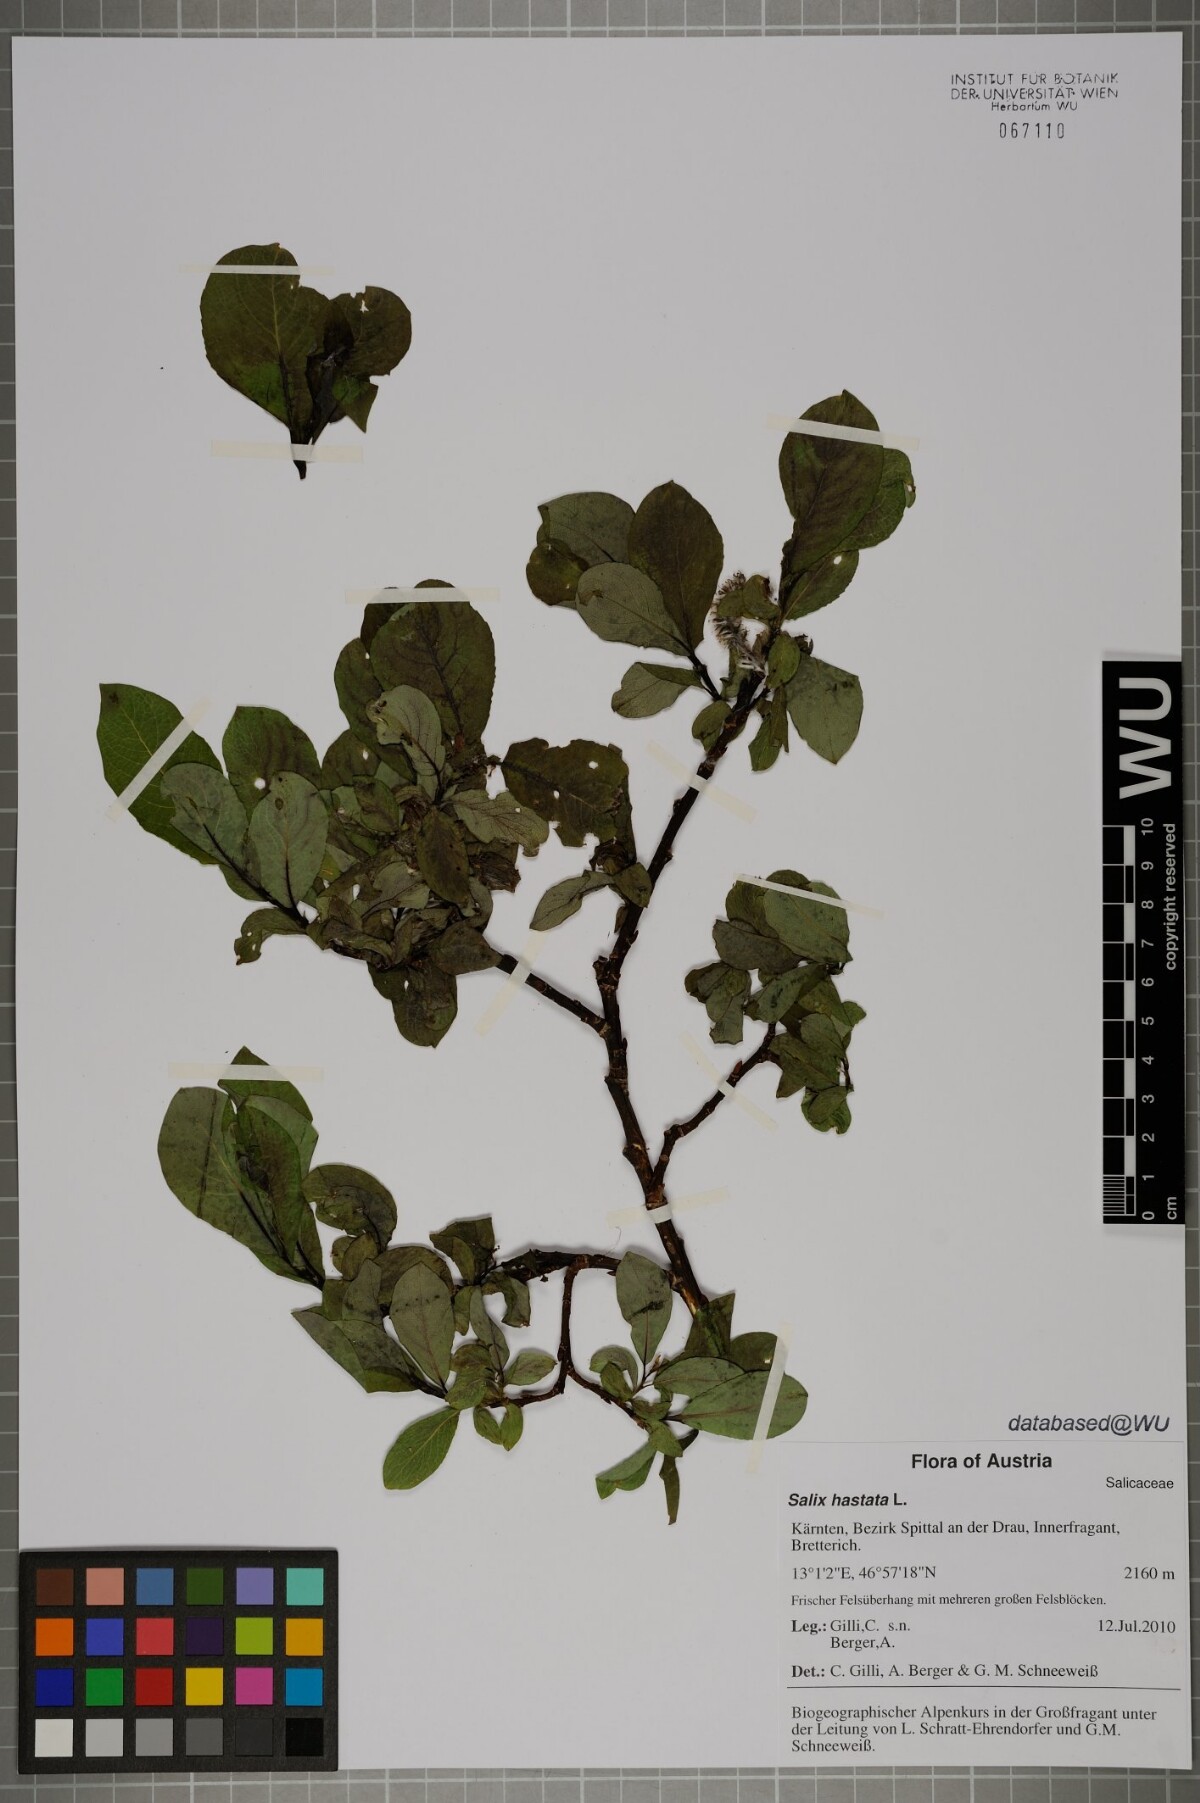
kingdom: Plantae
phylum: Tracheophyta
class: Magnoliopsida
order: Malpighiales
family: Salicaceae
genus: Salix
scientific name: Salix hastata
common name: Halberd willow
